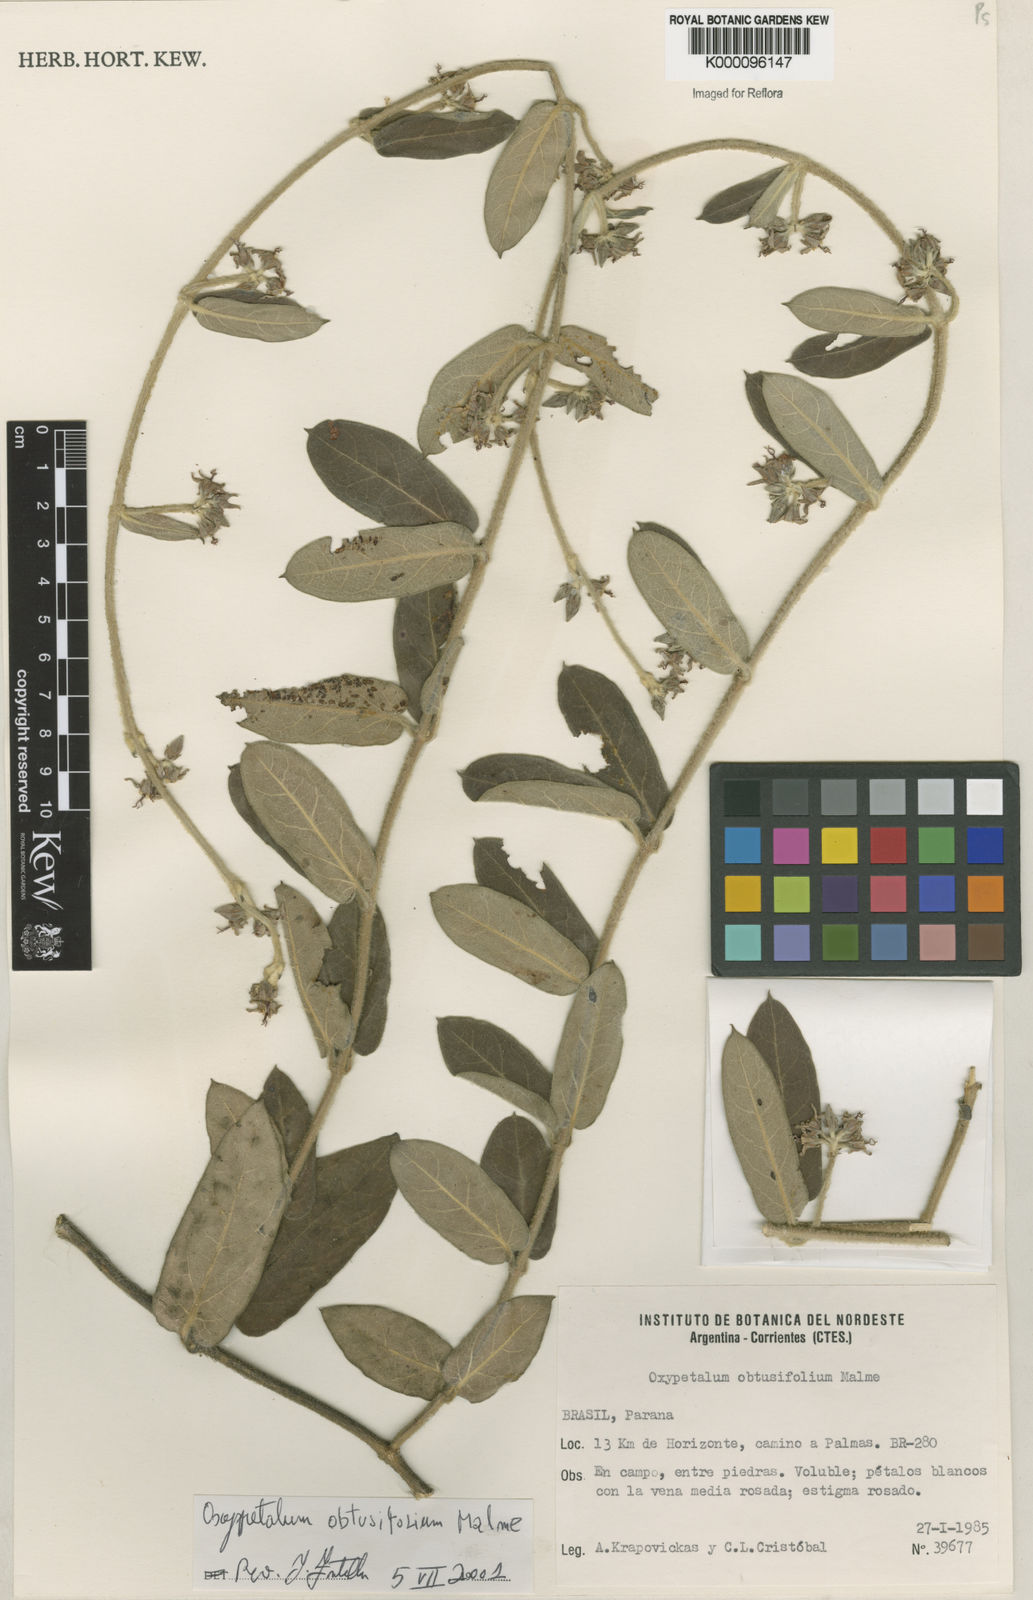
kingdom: Plantae
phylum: Tracheophyta
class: Magnoliopsida
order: Gentianales
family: Apocynaceae
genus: Oxypetalum
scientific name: Oxypetalum obtusifolium
